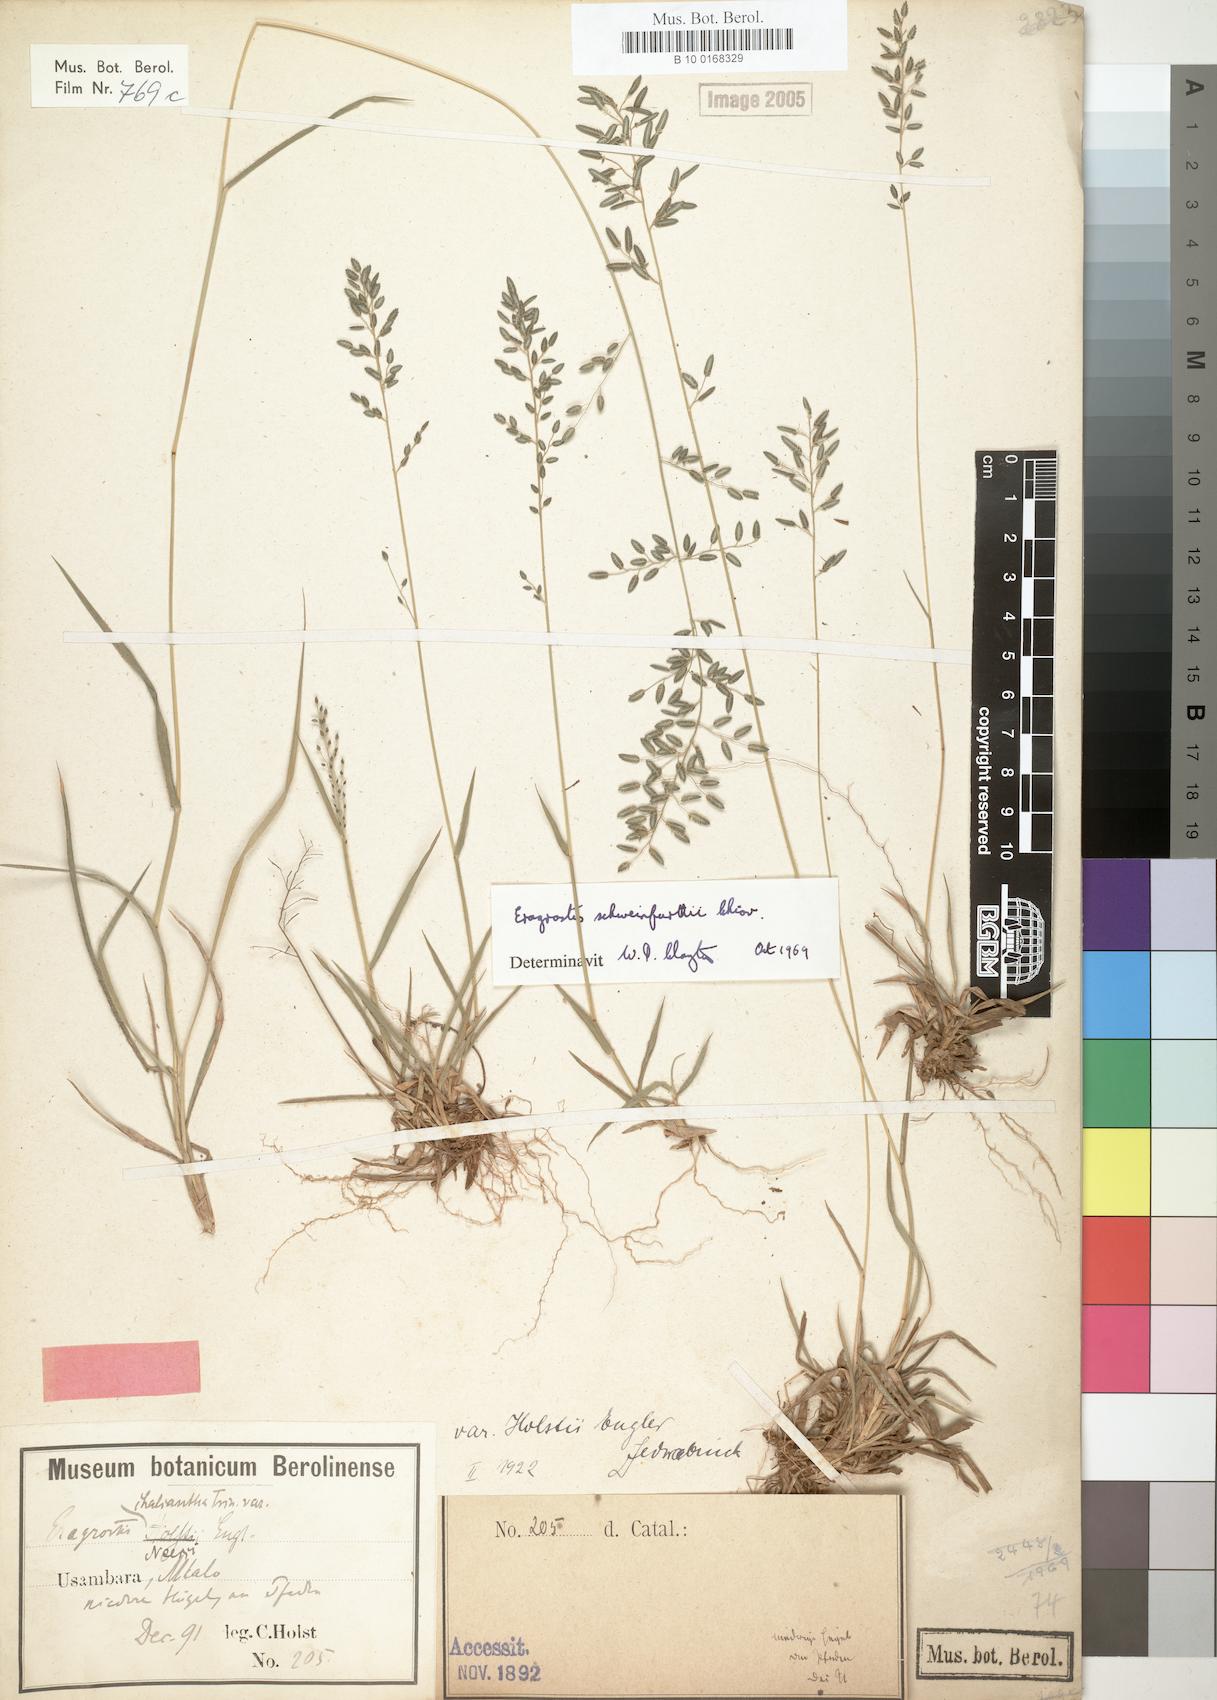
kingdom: Plantae
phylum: Tracheophyta
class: Liliopsida
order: Poales
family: Poaceae
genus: Eragrostis
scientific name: Eragrostis schweinfurthii
